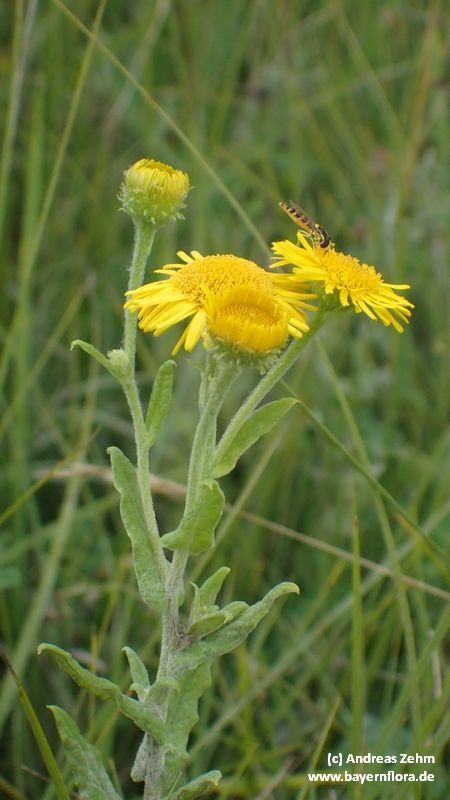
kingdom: Plantae
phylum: Tracheophyta
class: Magnoliopsida
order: Asterales
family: Asteraceae
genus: Pulicaria
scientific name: Pulicaria dysenterica
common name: Common fleabane
